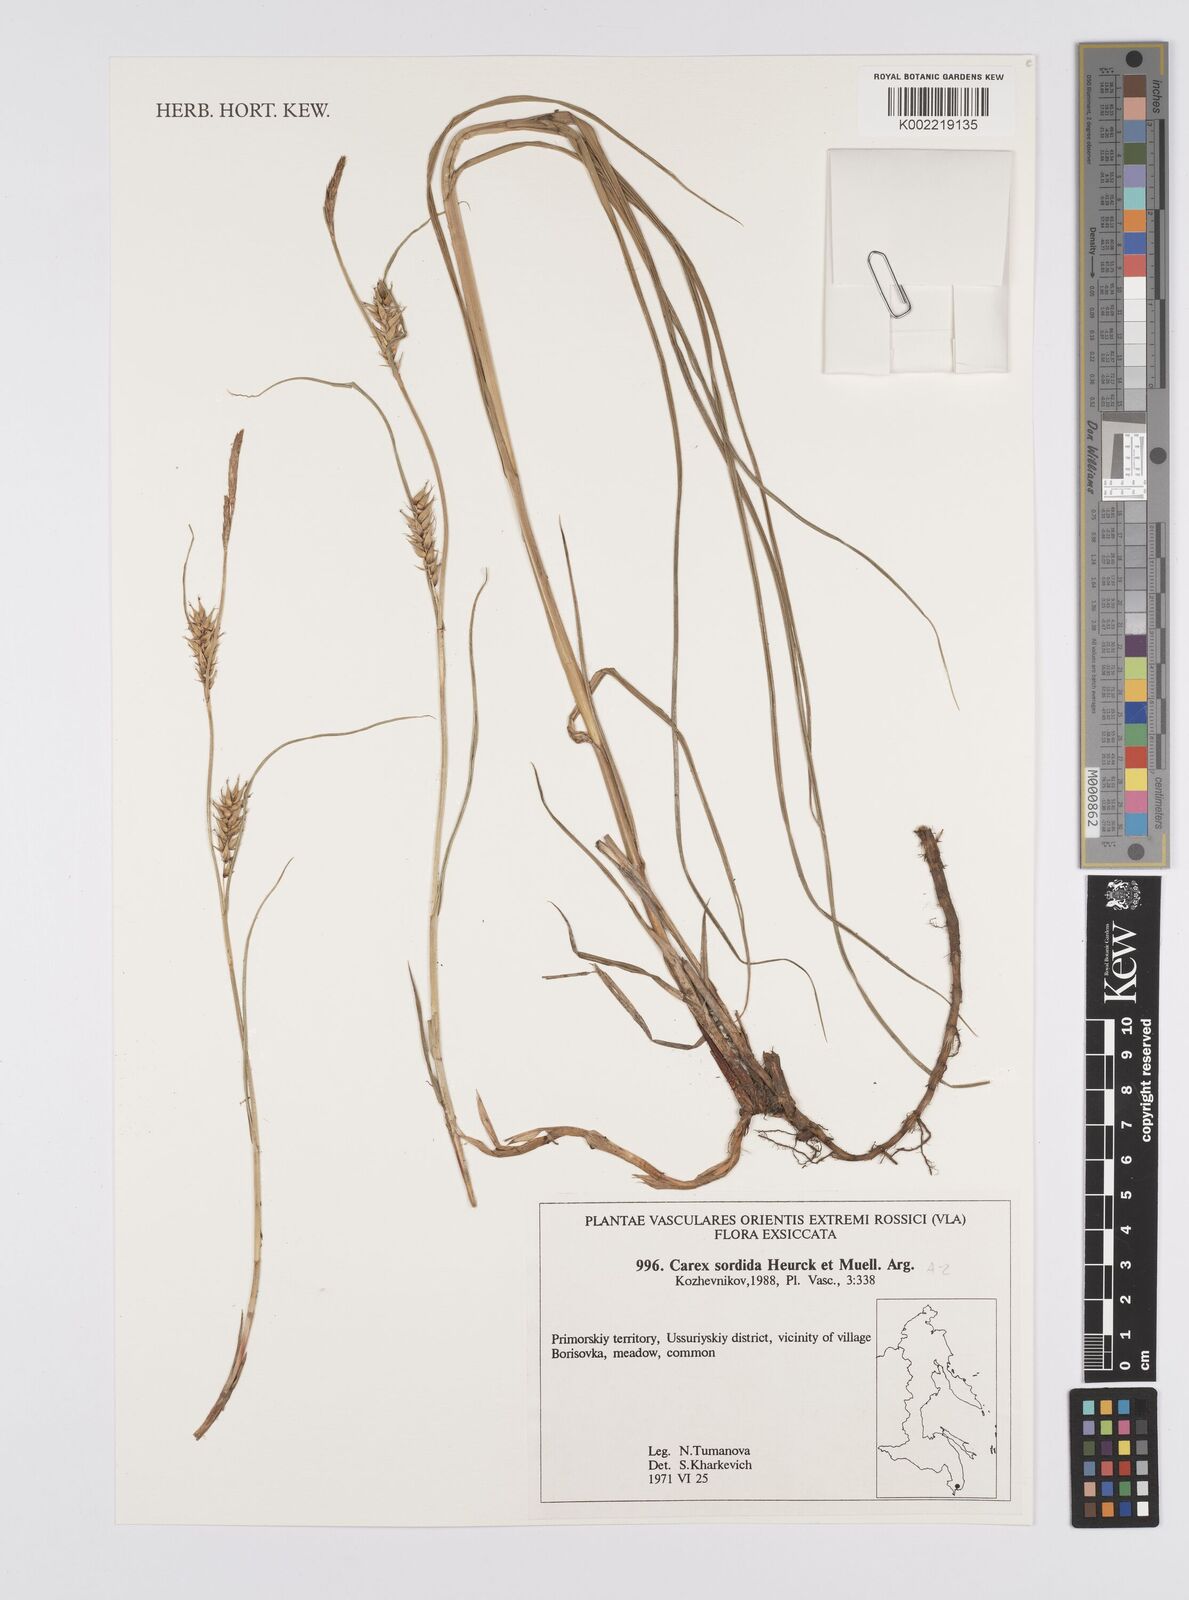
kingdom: Plantae
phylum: Tracheophyta
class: Liliopsida
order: Poales
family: Cyperaceae
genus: Carex
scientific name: Carex sordida
